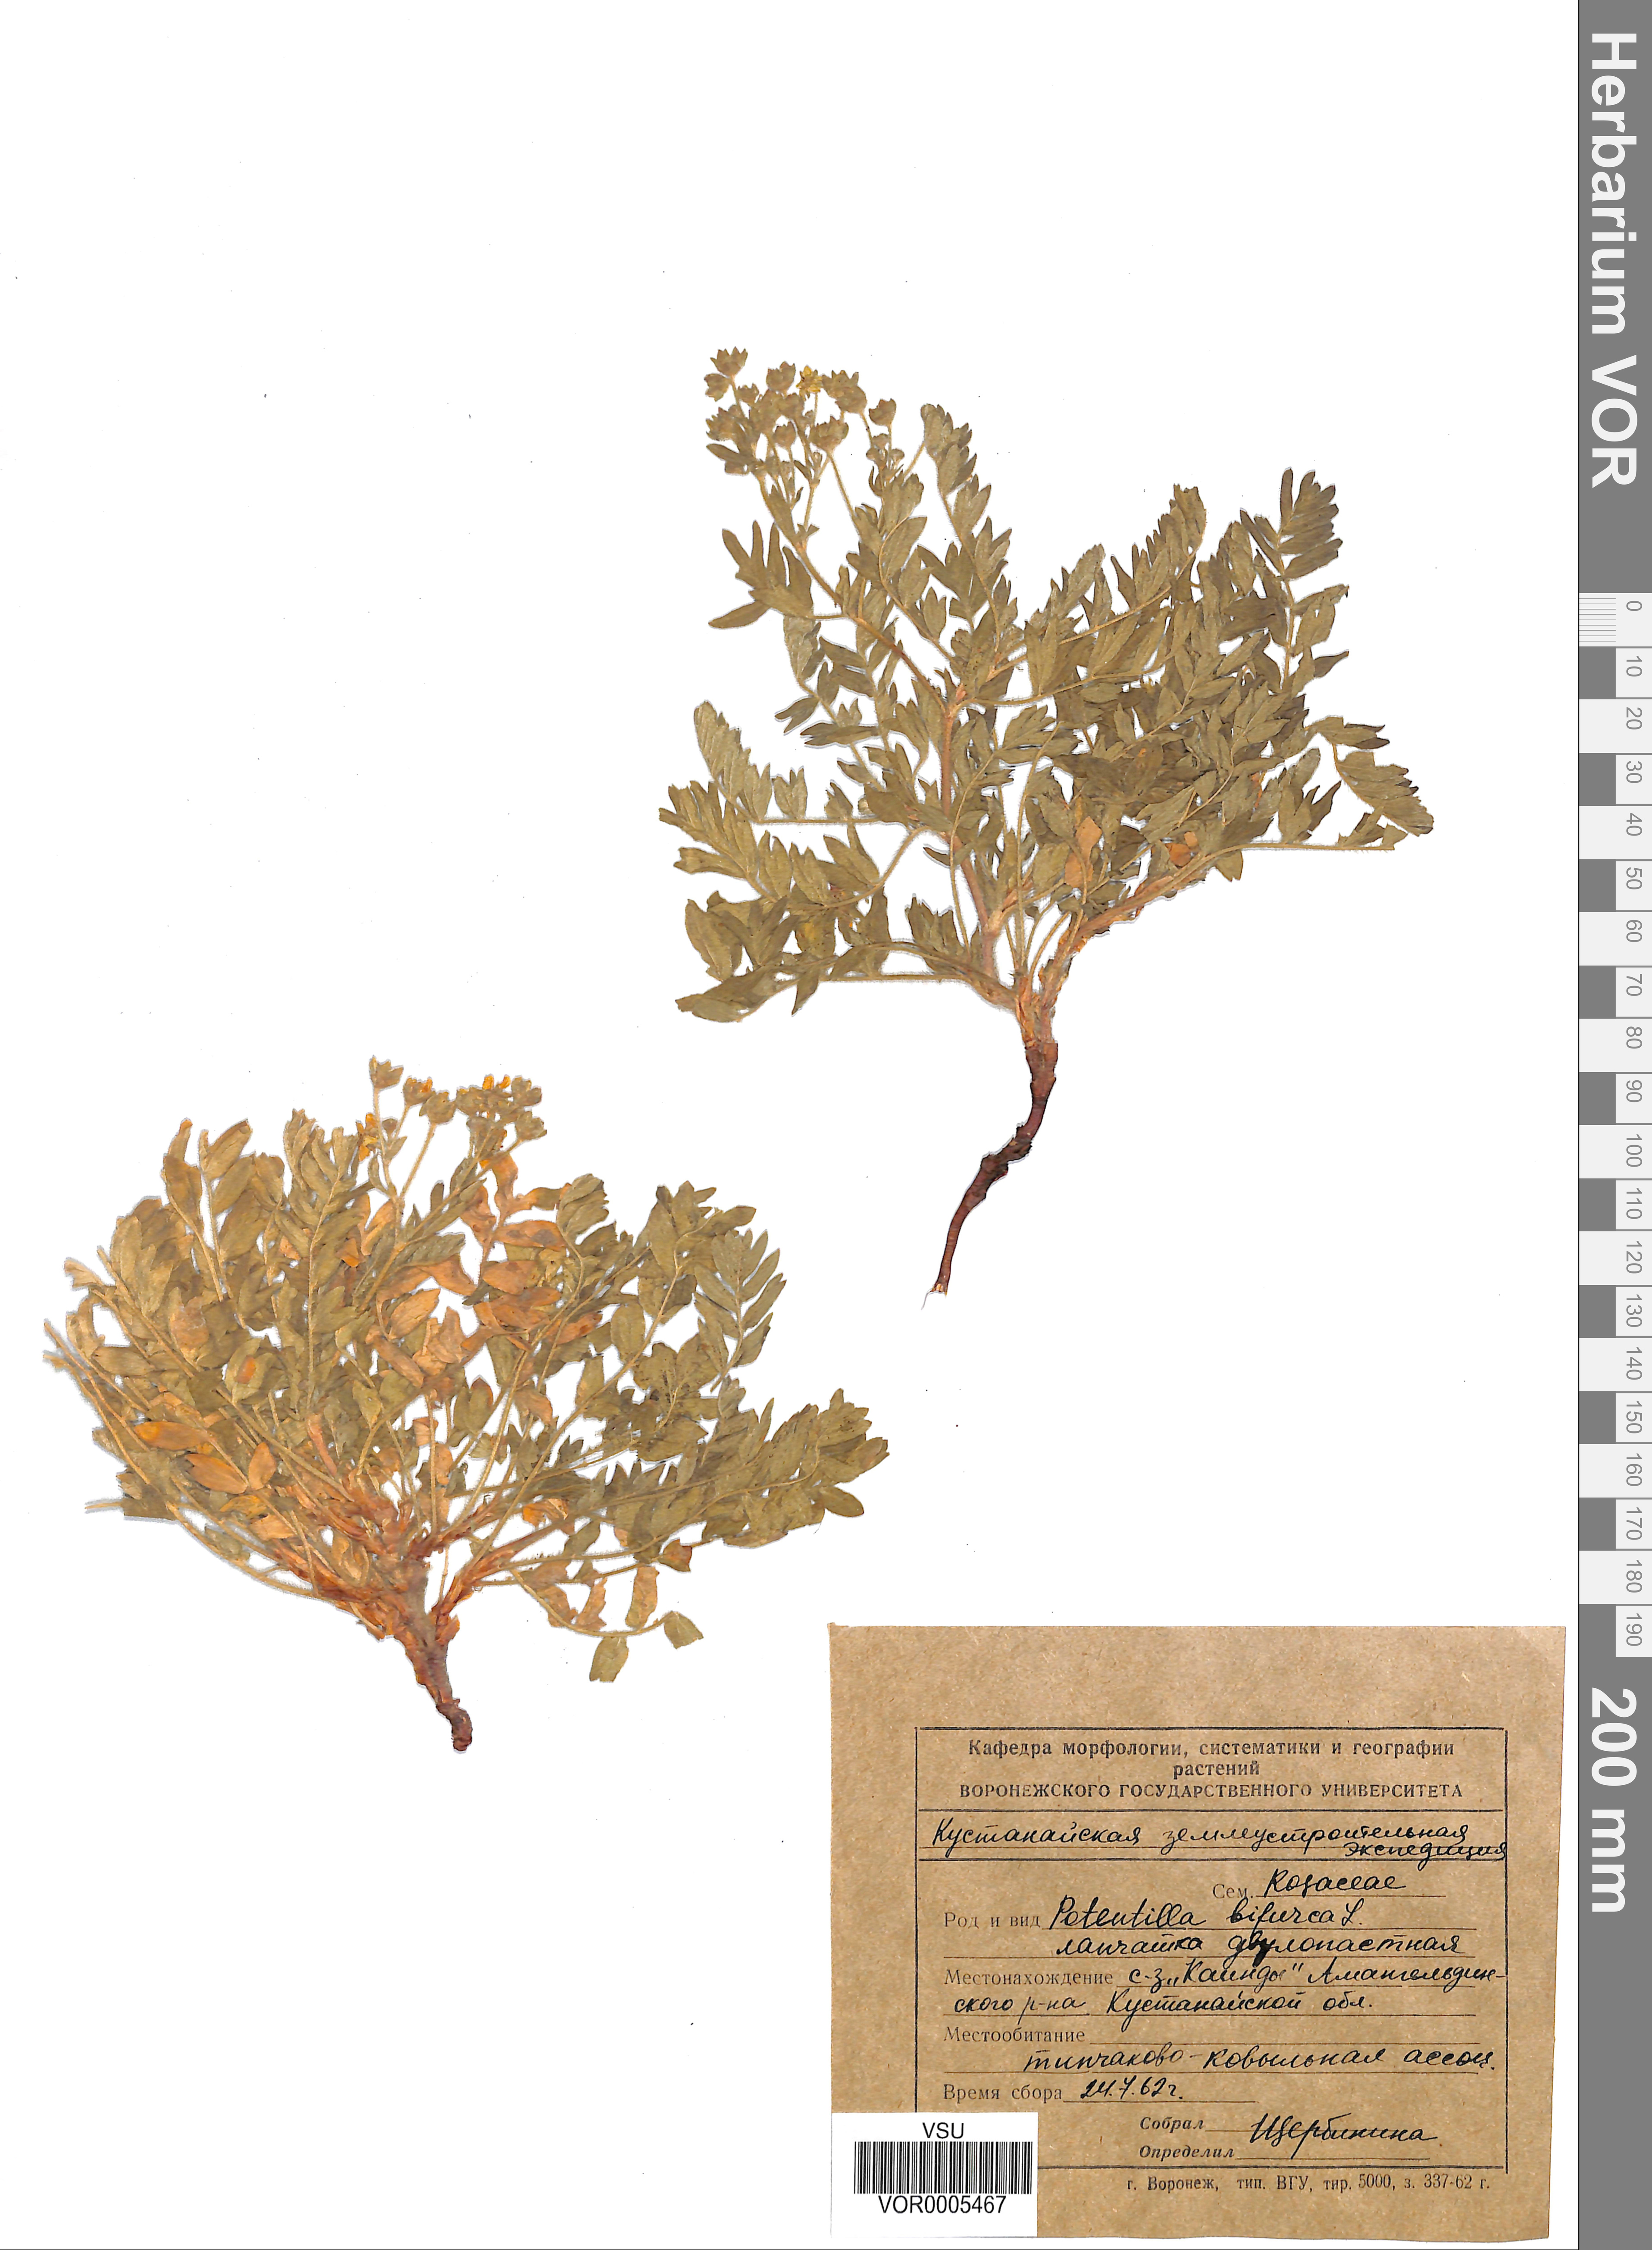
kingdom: Plantae
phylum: Tracheophyta
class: Magnoliopsida
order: Rosales
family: Rosaceae
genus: Sibbaldianthe
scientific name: Sibbaldianthe bifurca
